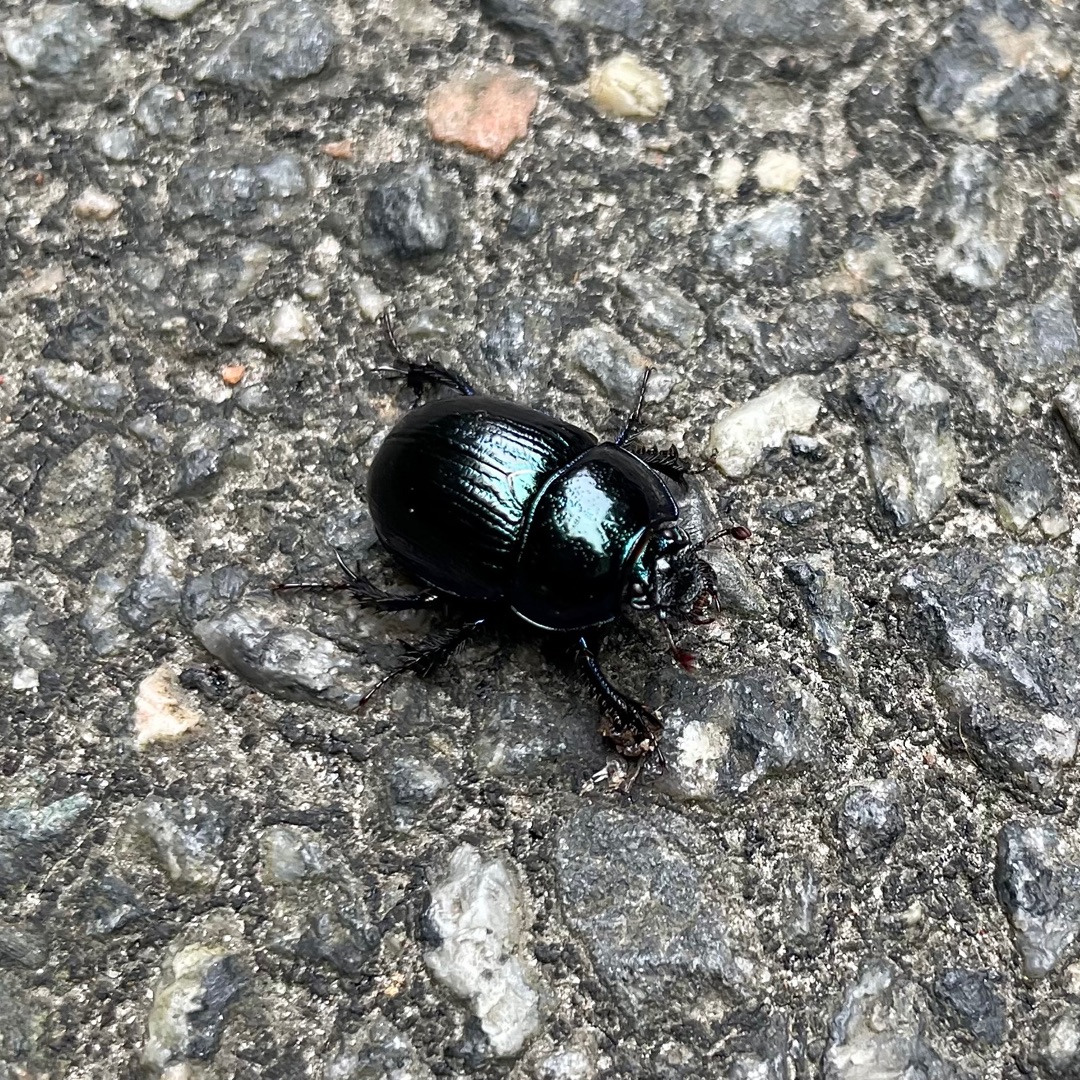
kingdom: Animalia
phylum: Arthropoda
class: Insecta
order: Coleoptera
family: Geotrupidae
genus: Anoplotrupes
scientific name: Anoplotrupes stercorosus
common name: Skovskarnbasse
